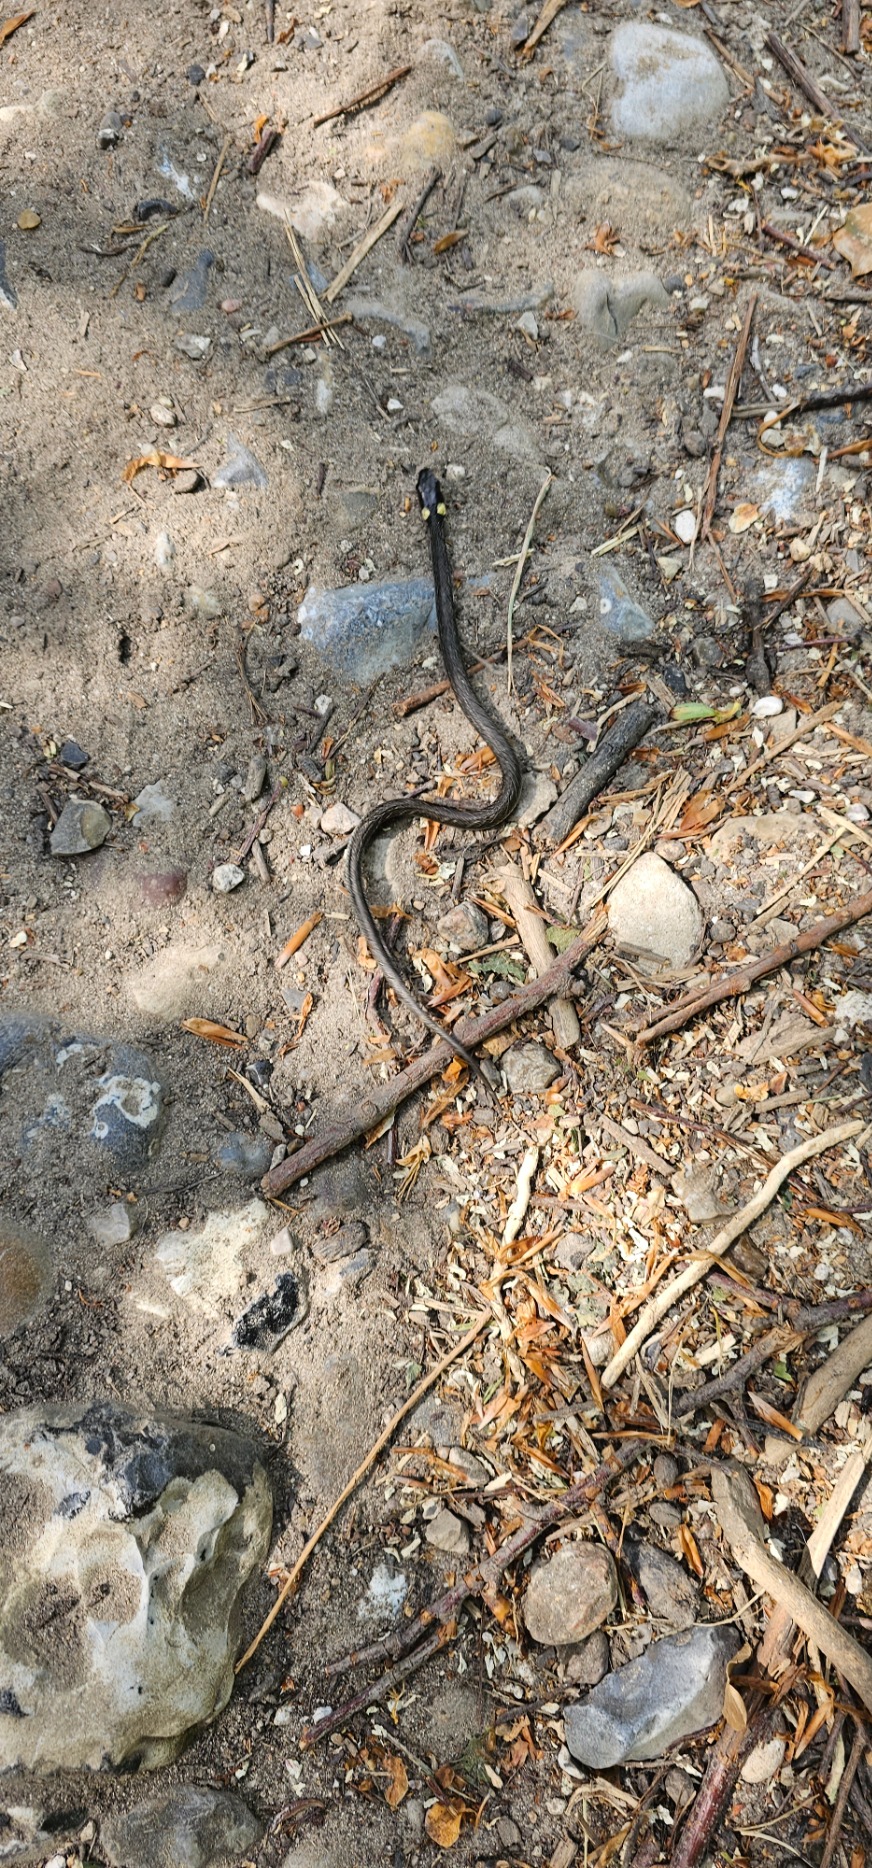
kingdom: Animalia
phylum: Chordata
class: Squamata
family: Colubridae
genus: Natrix
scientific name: Natrix natrix
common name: Snog
